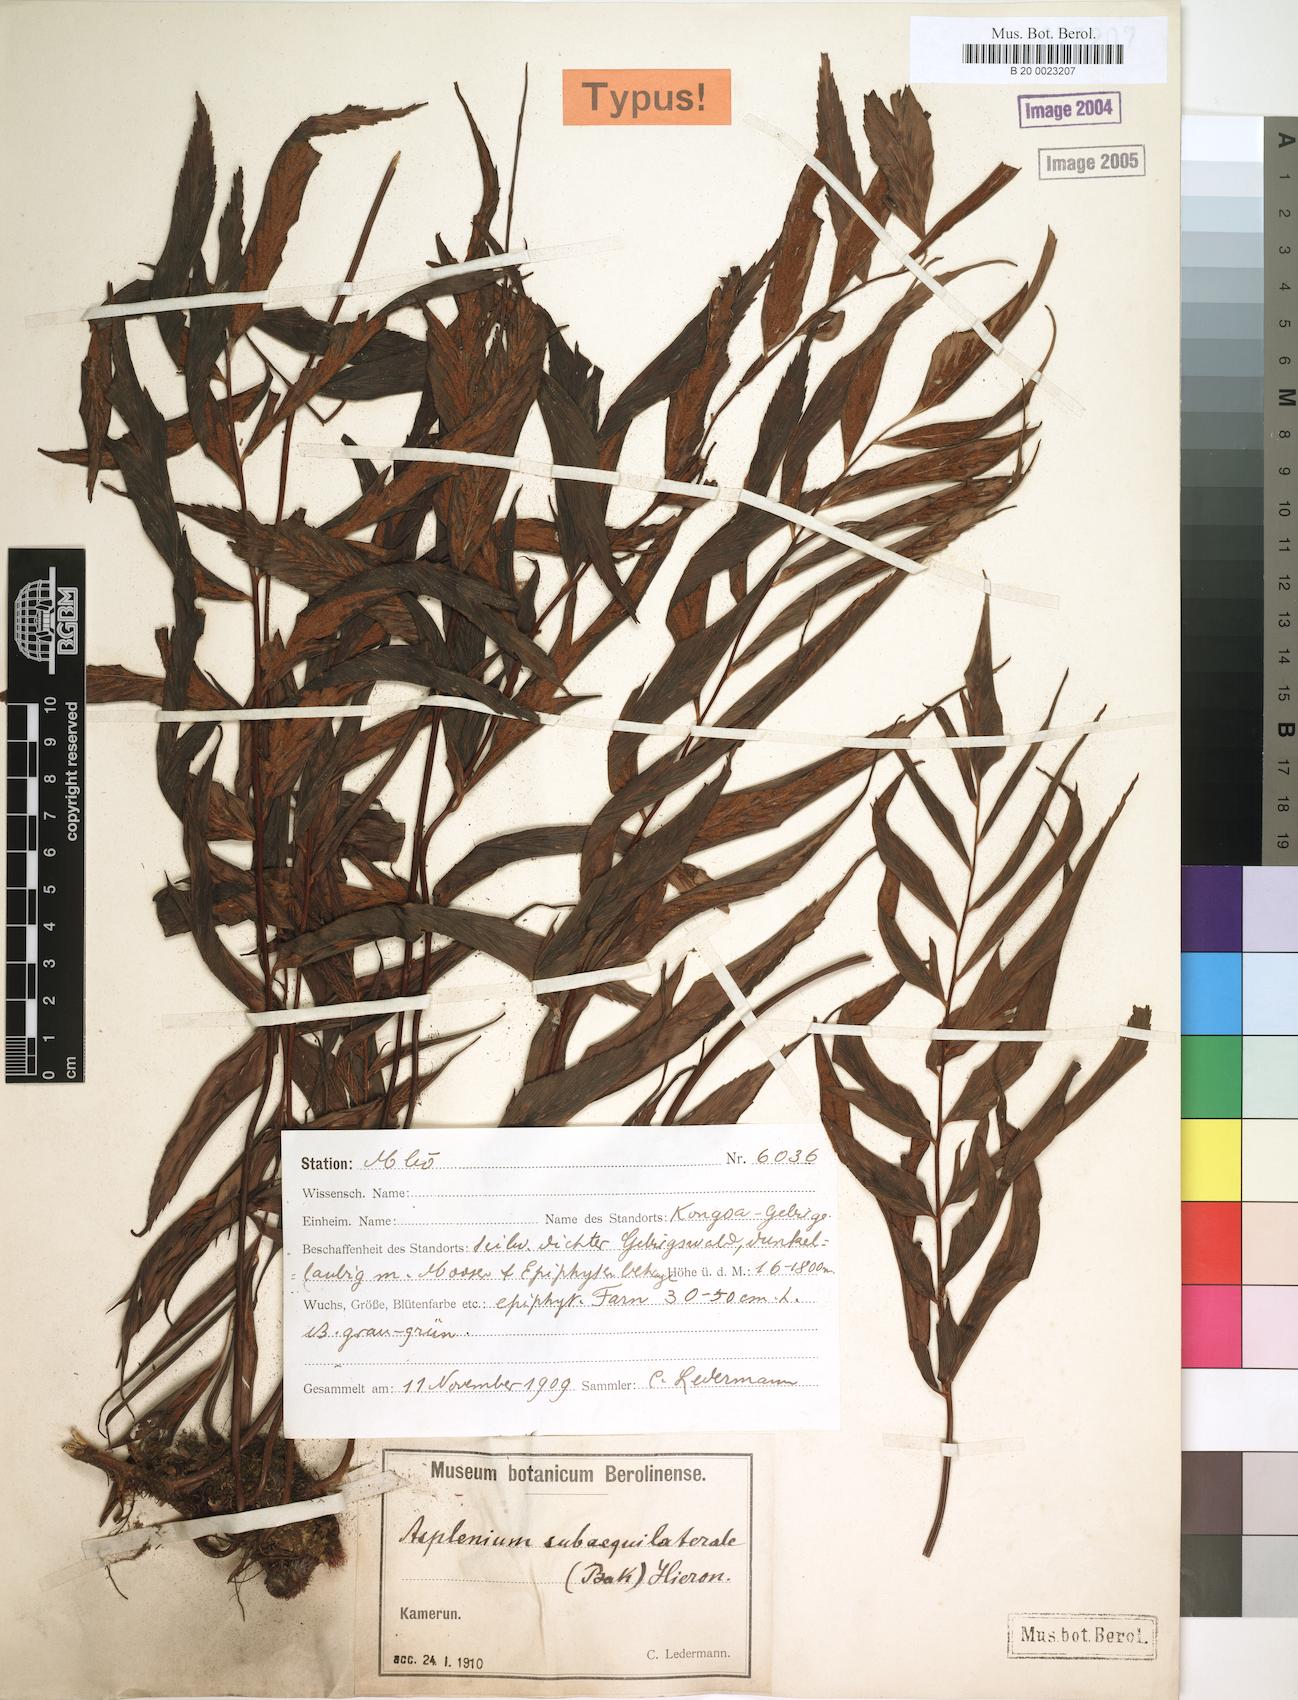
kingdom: Plantae
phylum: Tracheophyta
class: Polypodiopsida
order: Polypodiales
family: Aspleniaceae
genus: Asplenium
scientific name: Asplenium subaequilaterale
